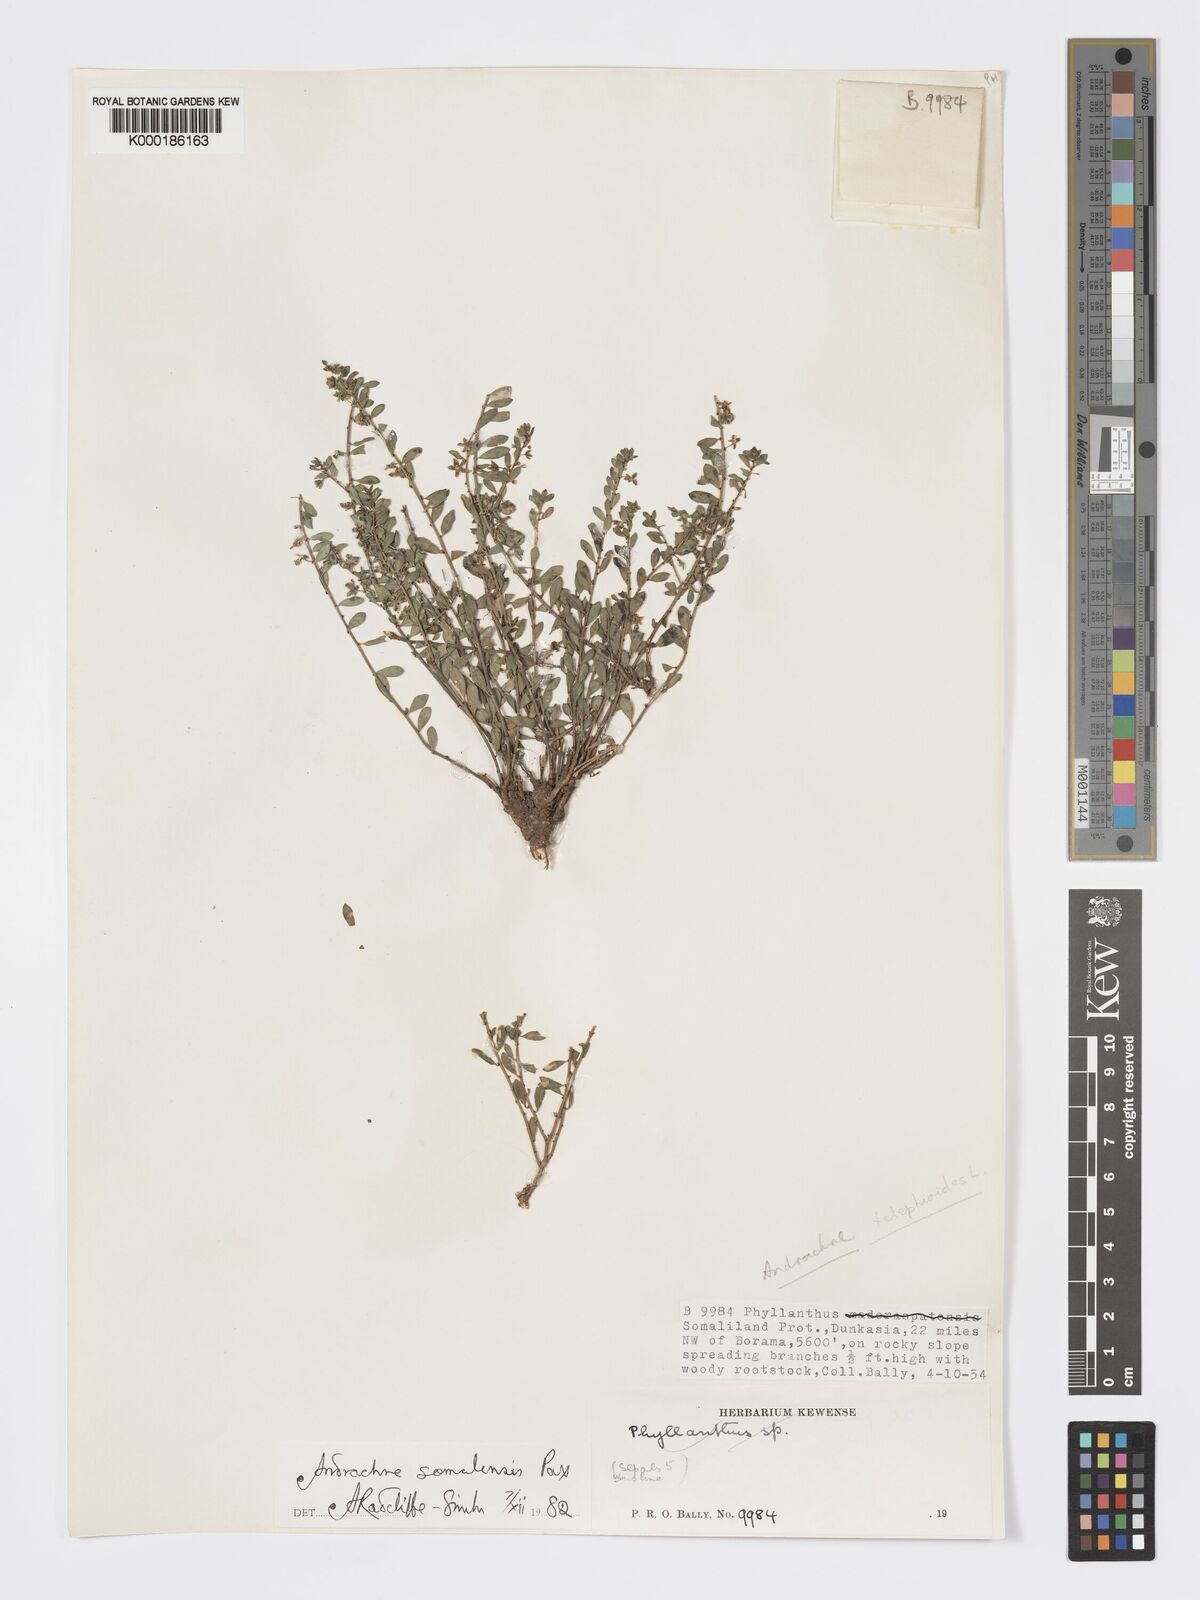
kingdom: Plantae
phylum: Tracheophyta
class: Magnoliopsida
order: Malpighiales
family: Phyllanthaceae
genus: Andrachne
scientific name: Andrachne schweinfurthii
